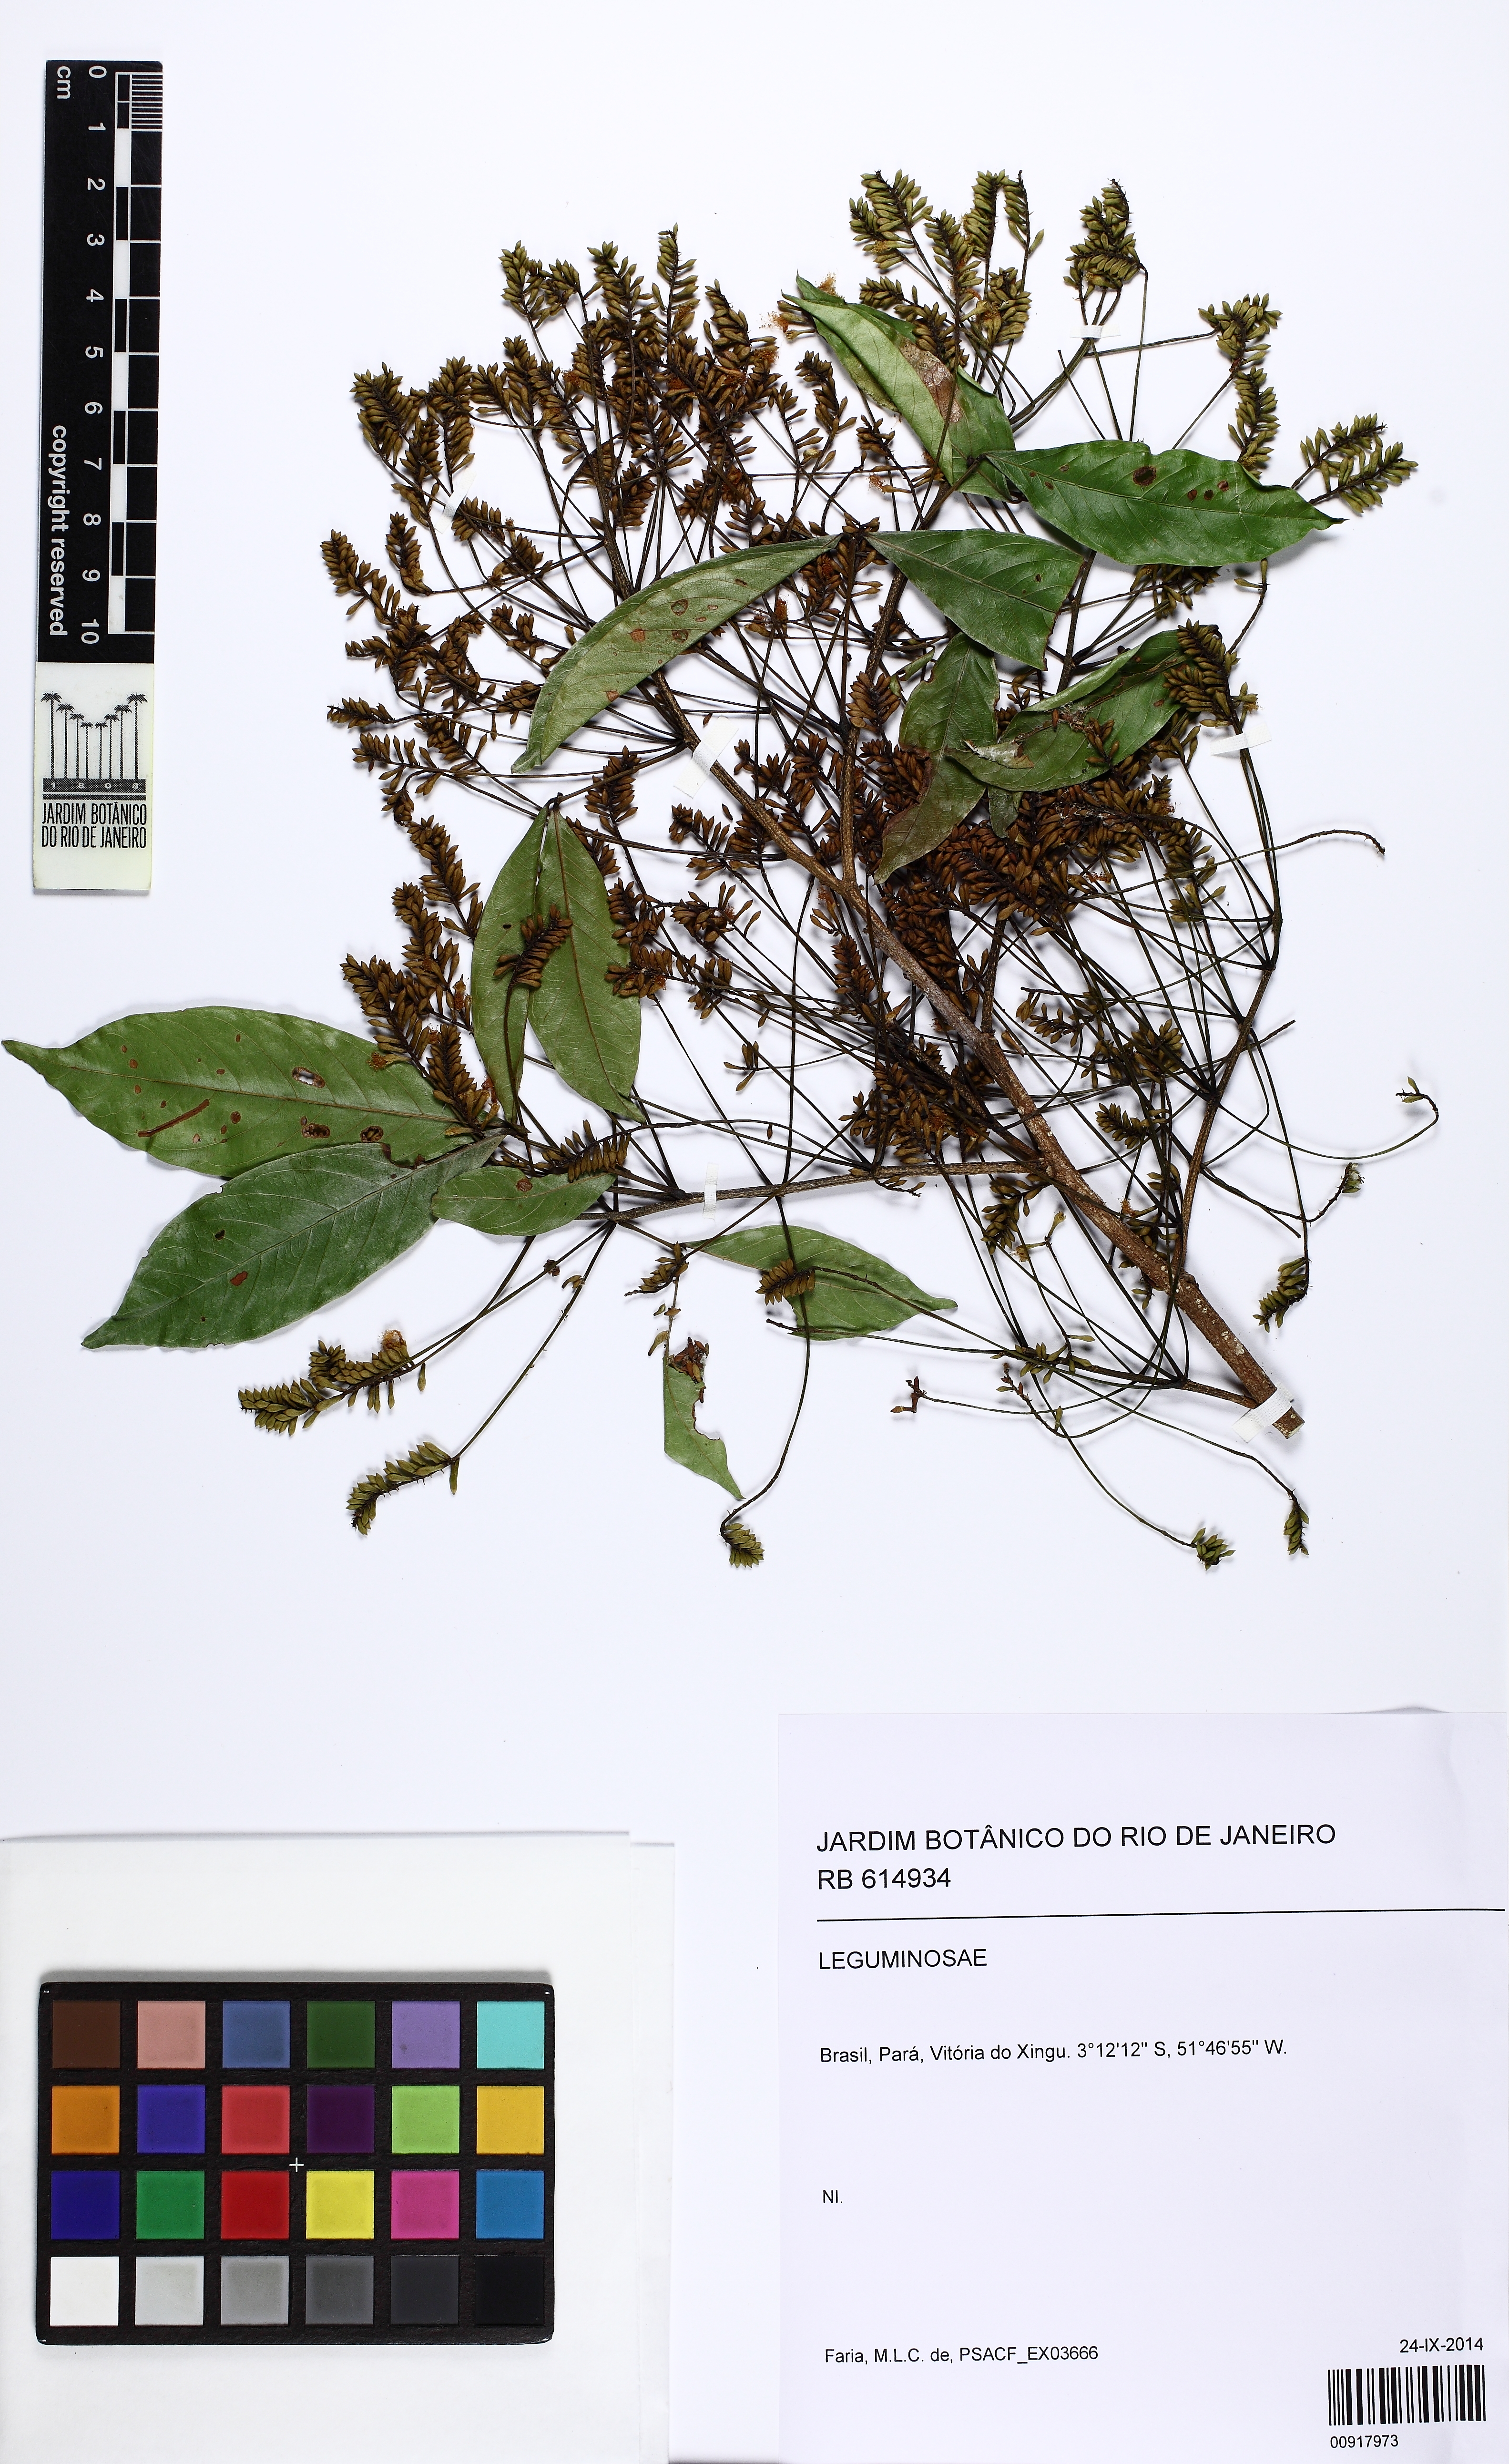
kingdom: Plantae
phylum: Tracheophyta
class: Magnoliopsida
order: Fabales
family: Fabaceae
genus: Inga
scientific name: Inga
